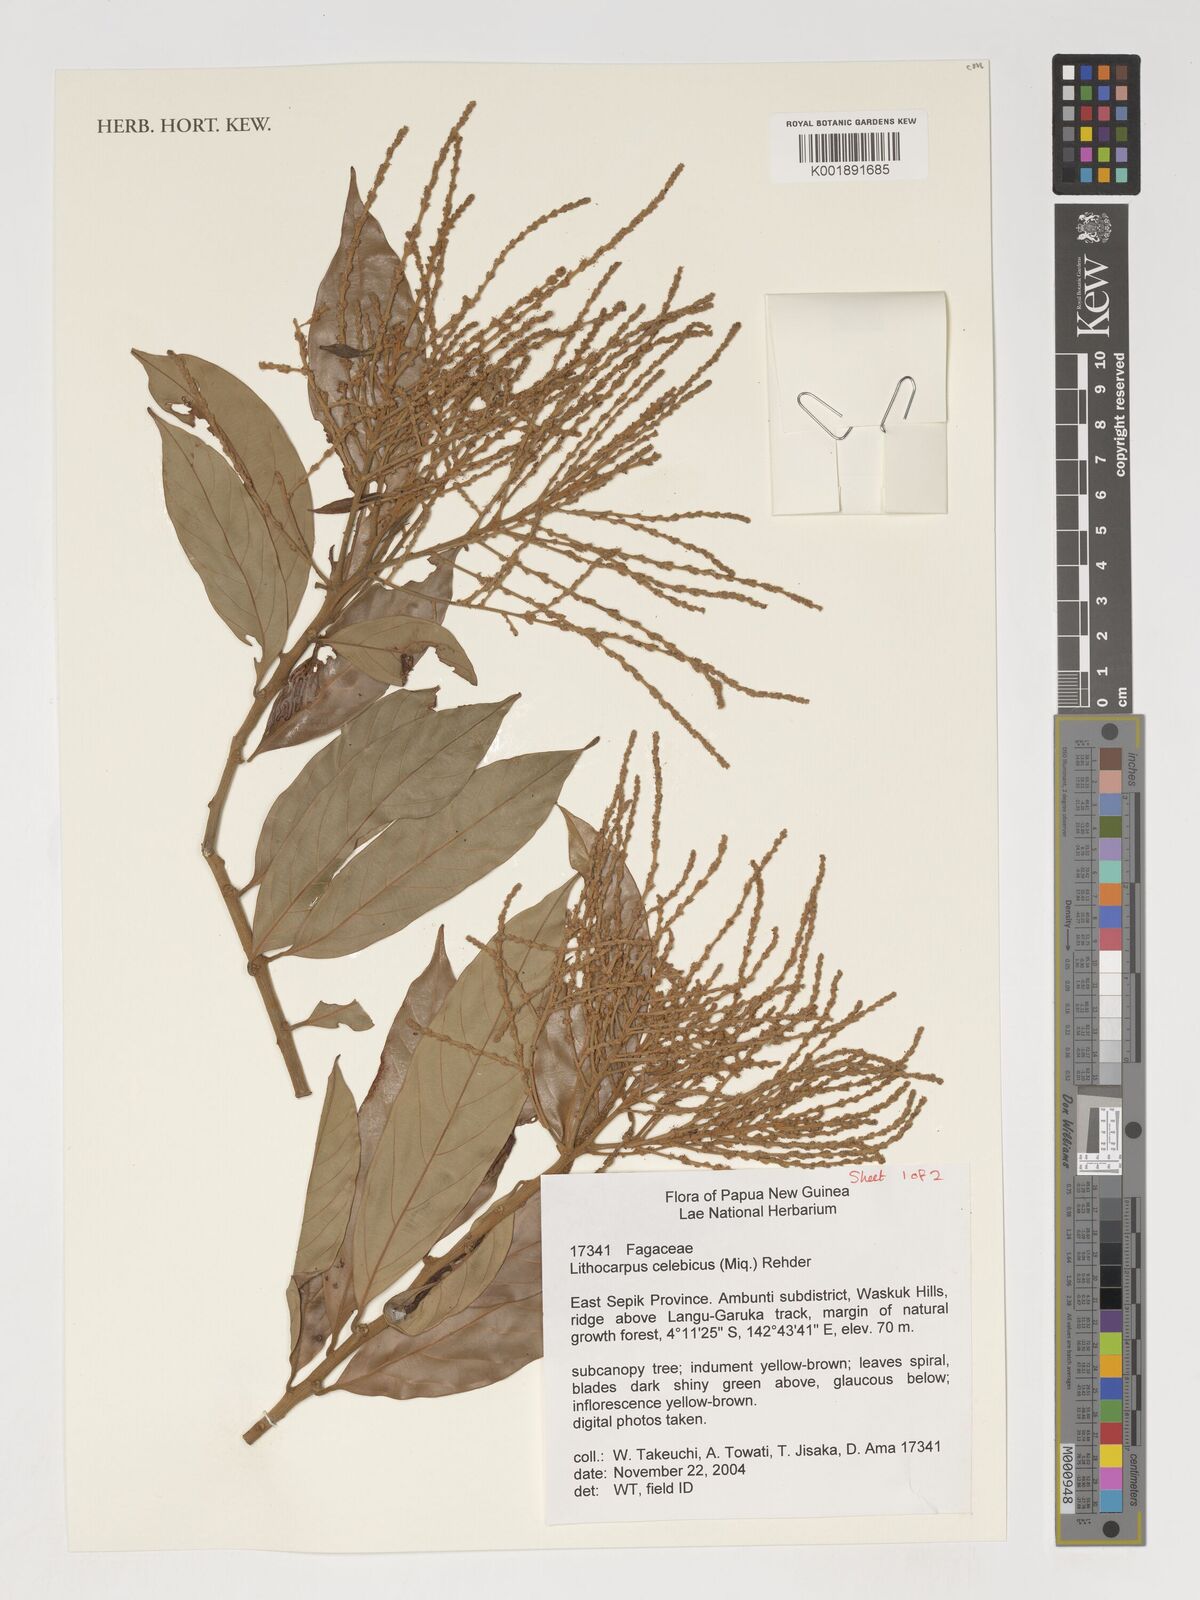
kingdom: Plantae
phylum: Tracheophyta
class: Magnoliopsida
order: Fagales
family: Fagaceae
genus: Lithocarpus
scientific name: Lithocarpus celebicus
